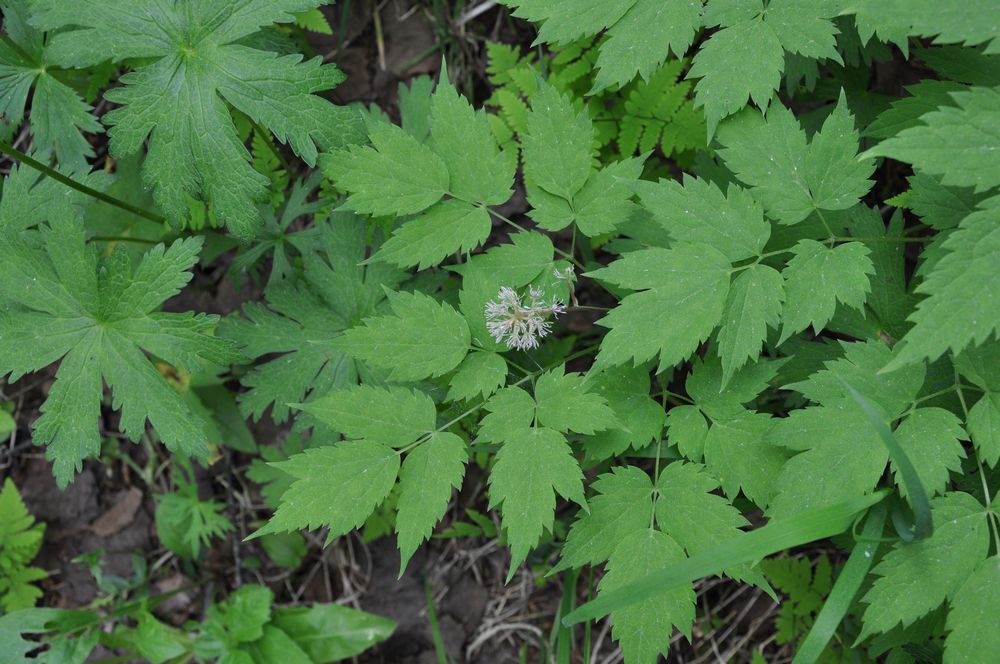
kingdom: Plantae
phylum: Tracheophyta
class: Magnoliopsida
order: Ranunculales
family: Ranunculaceae
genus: Actaea
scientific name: Actaea erythrocarpa
